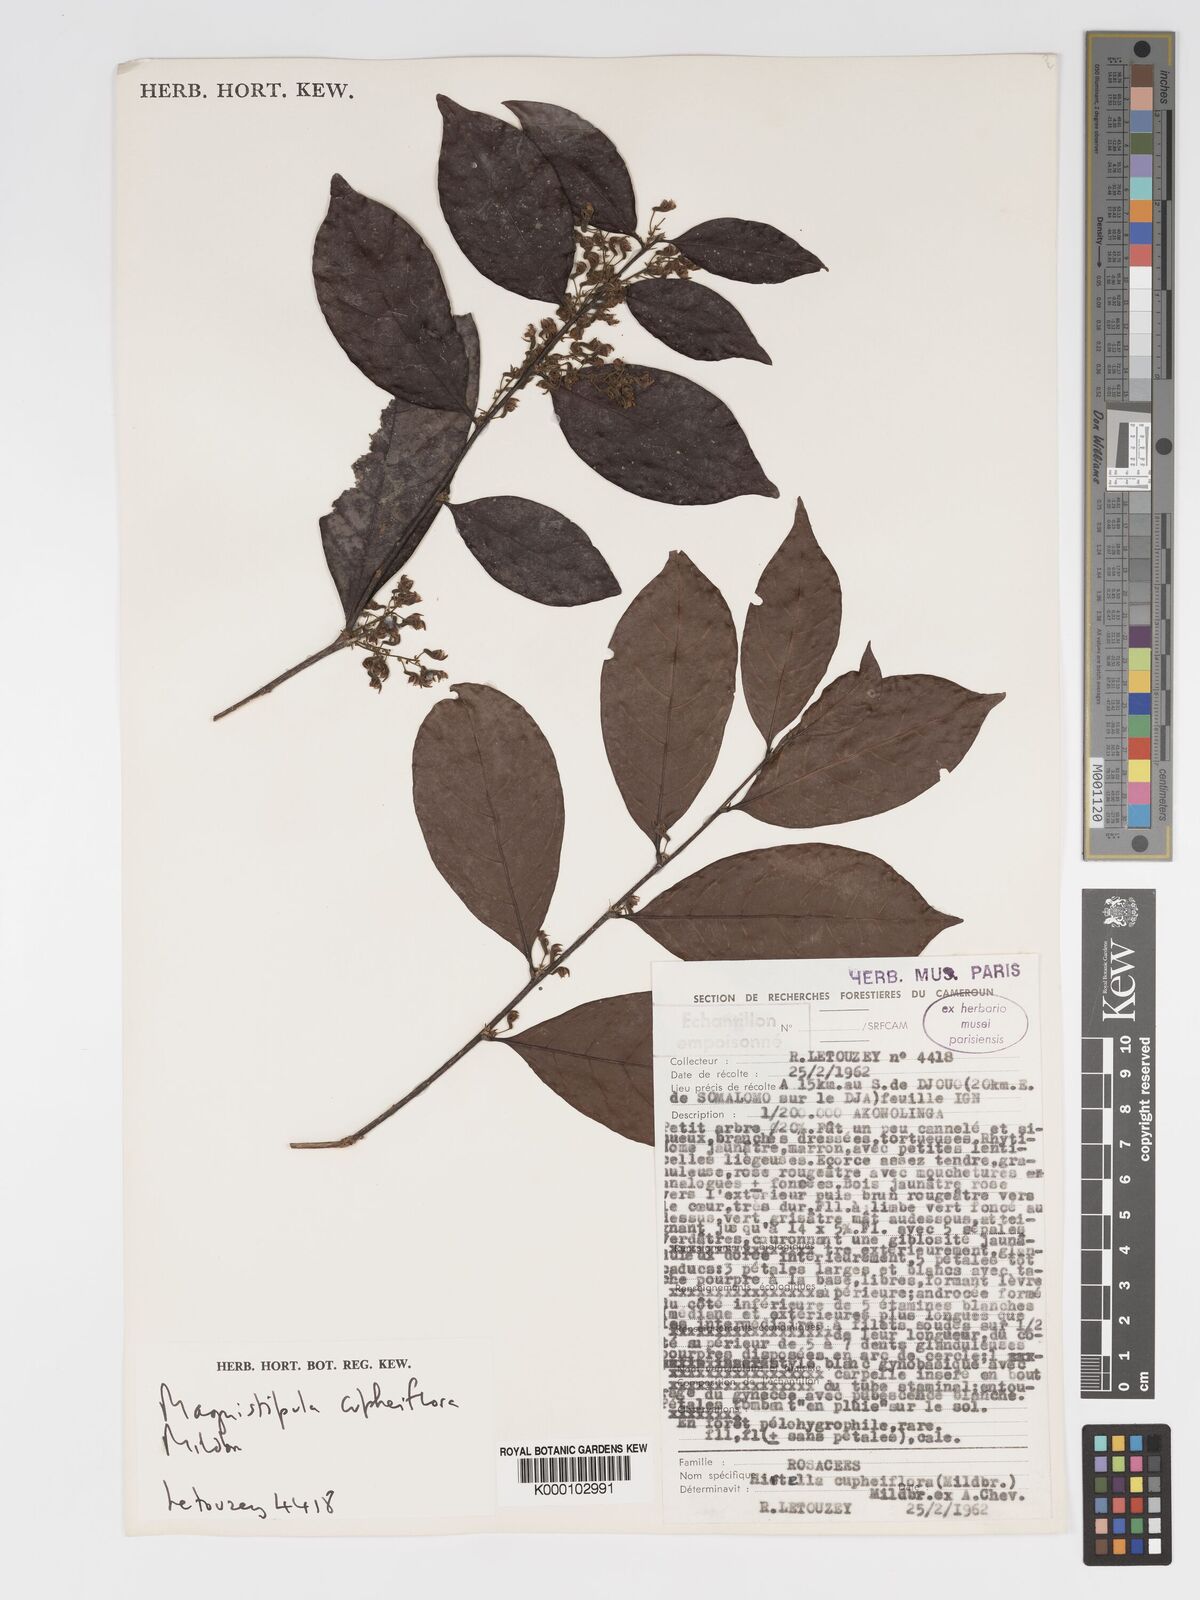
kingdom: Plantae
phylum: Tracheophyta
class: Magnoliopsida
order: Malpighiales
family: Chrysobalanaceae
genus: Magnistipula
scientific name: Magnistipula cupheiflora
